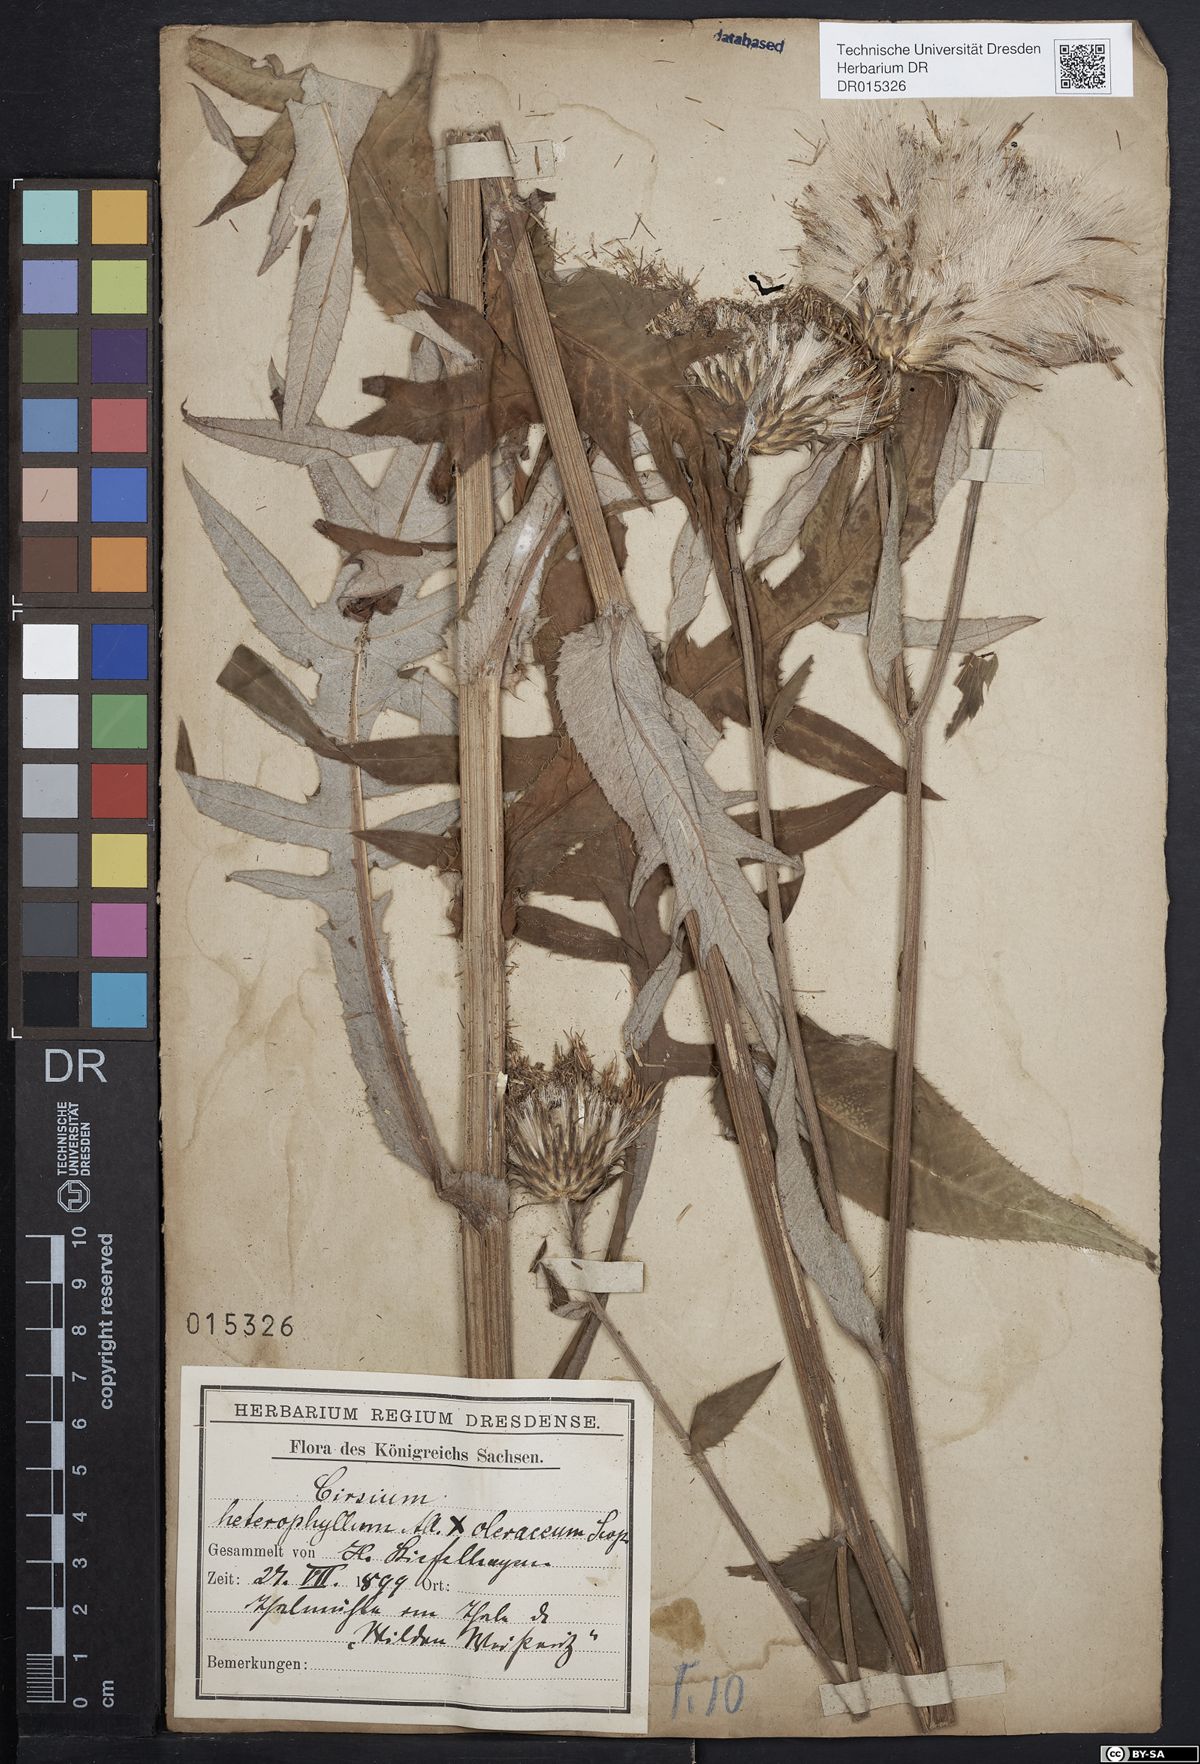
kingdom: Plantae
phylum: Tracheophyta
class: Magnoliopsida
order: Asterales
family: Asteraceae
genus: Cirsium
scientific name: Cirsium affine
